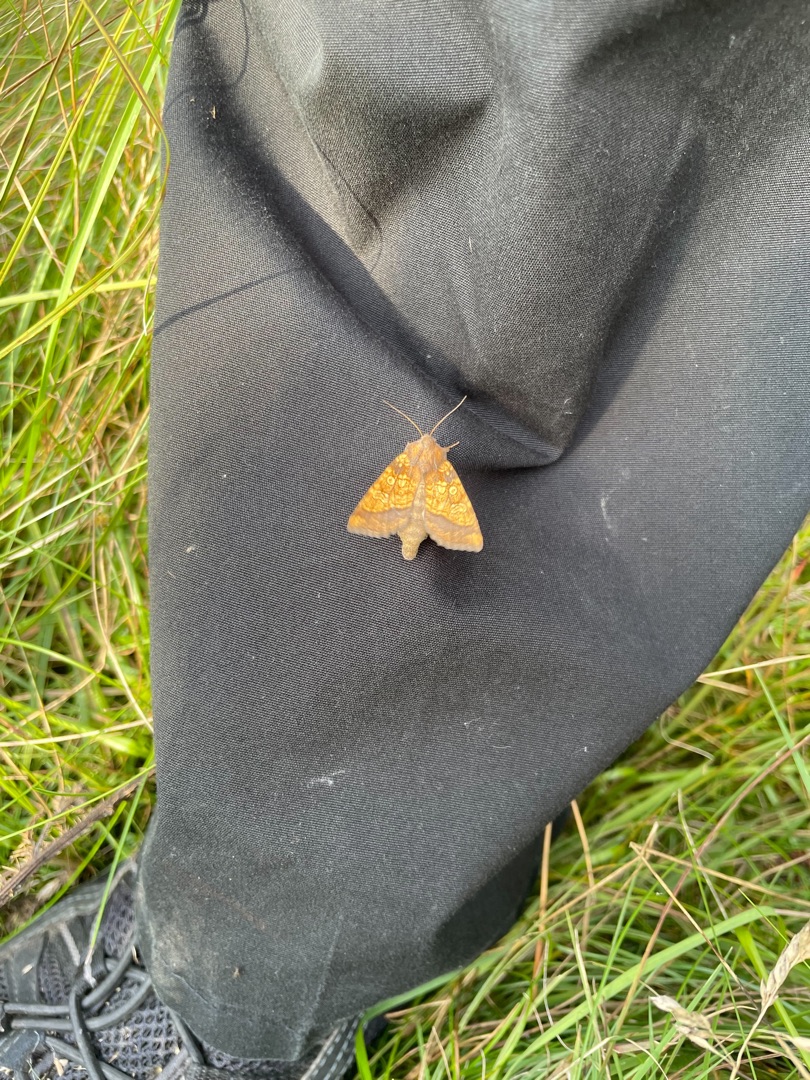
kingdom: Animalia
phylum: Arthropoda
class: Insecta
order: Lepidoptera
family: Noctuidae
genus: Gortyna
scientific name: Gortyna flavago
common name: Burreugle
